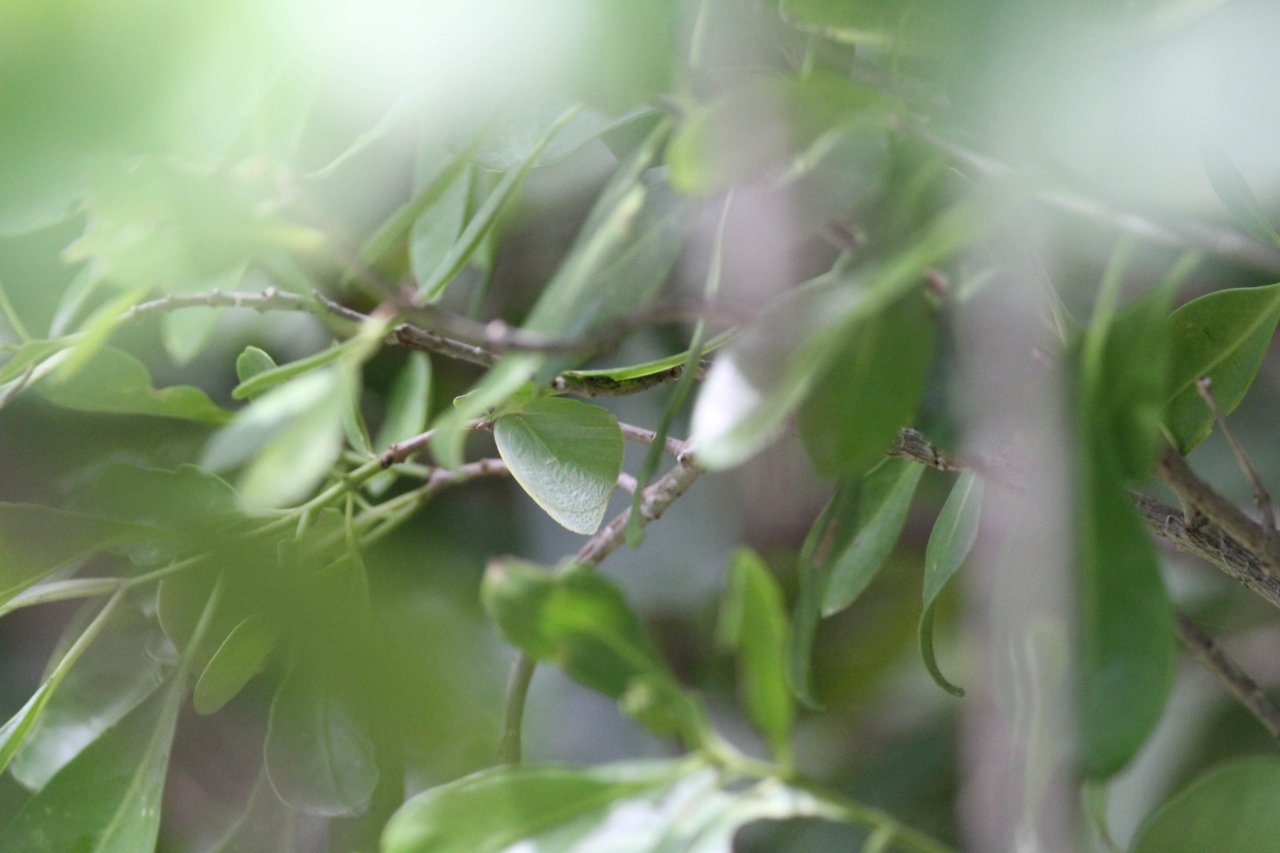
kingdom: Animalia
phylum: Arthropoda
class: Insecta
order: Lepidoptera
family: Pieridae
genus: Kricogonia
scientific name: Kricogonia lyside
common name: Lyside Sulphur
